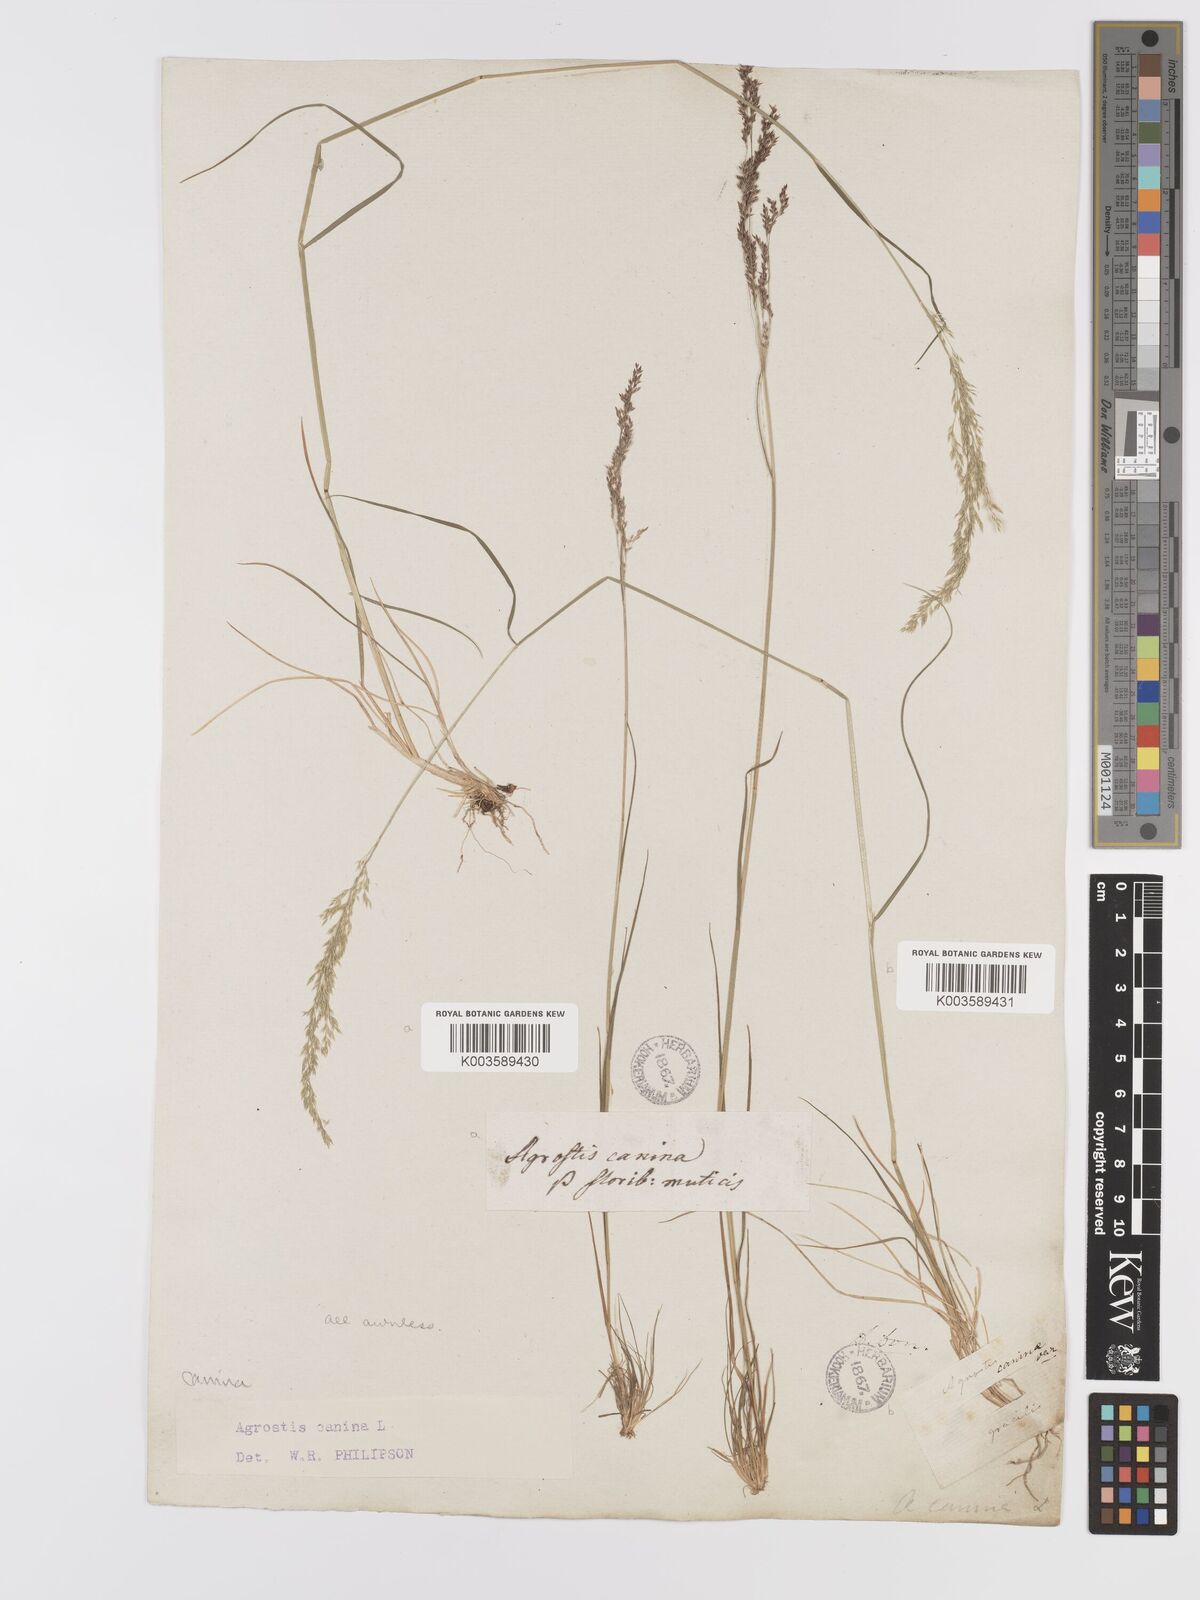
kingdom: Plantae
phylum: Tracheophyta
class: Liliopsida
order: Poales
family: Poaceae
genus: Agrostis
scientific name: Agrostis canina
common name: Velvet bent
